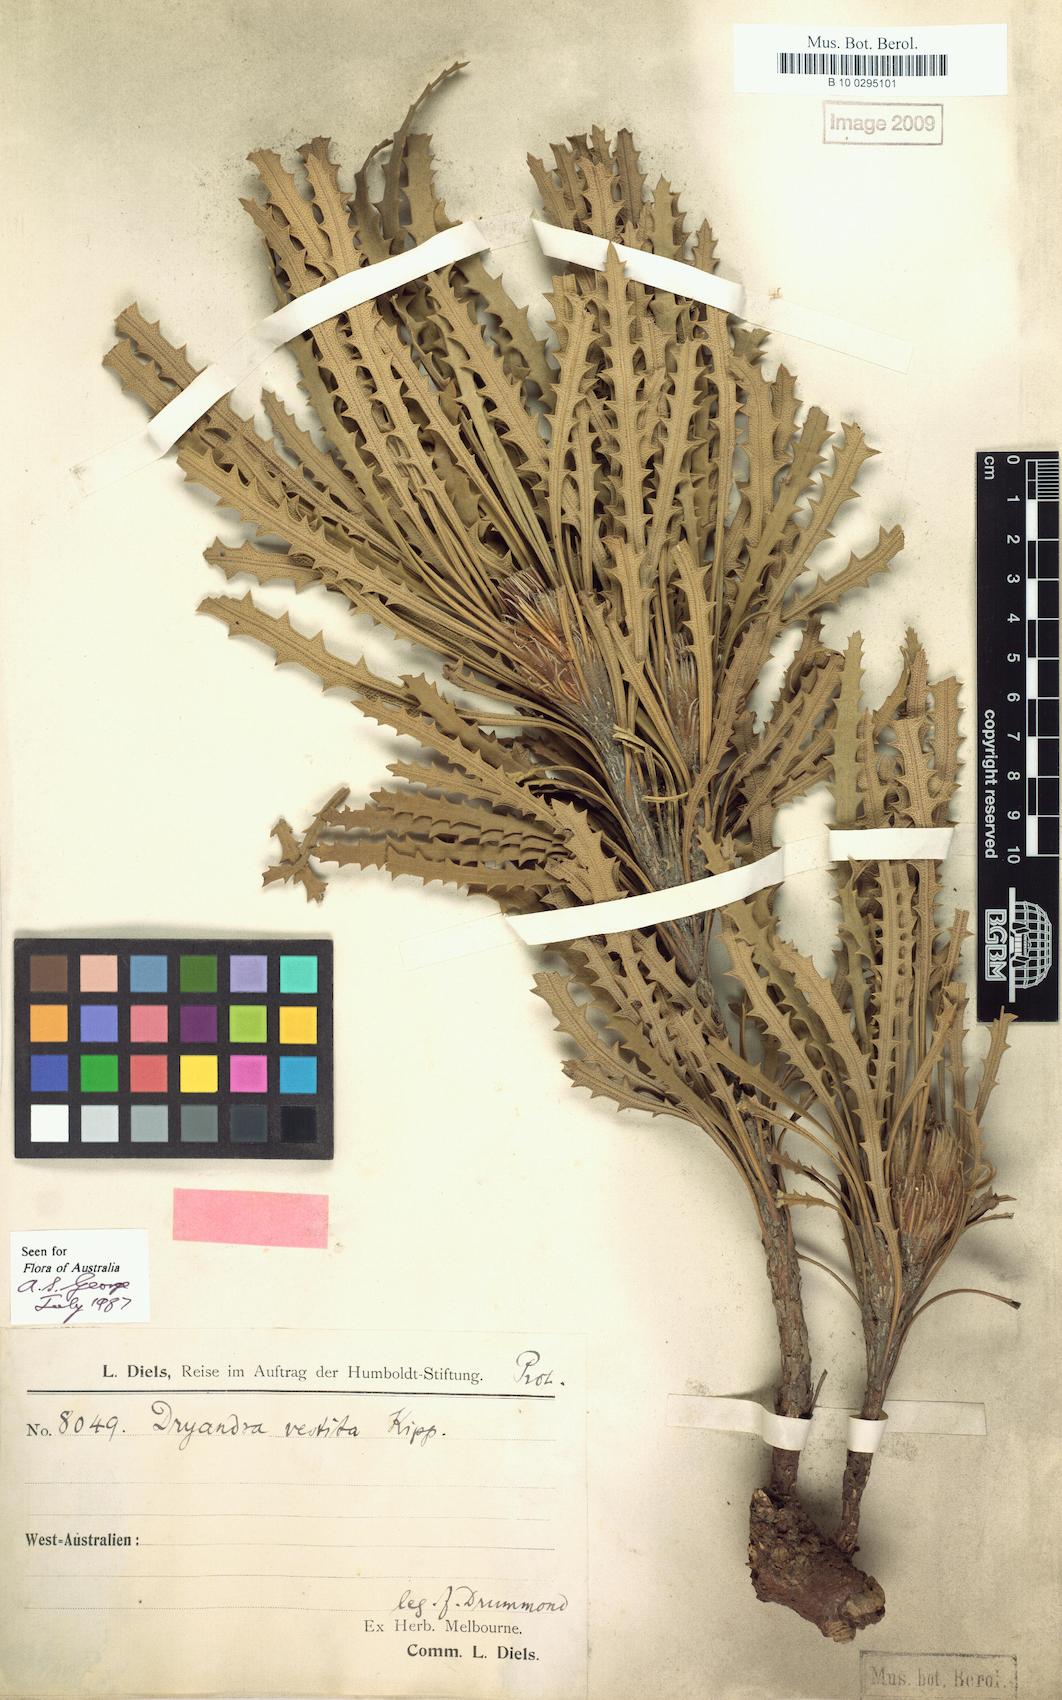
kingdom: Plantae
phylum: Tracheophyta
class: Magnoliopsida
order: Proteales
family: Proteaceae
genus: Banksia
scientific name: Banksia vestita
